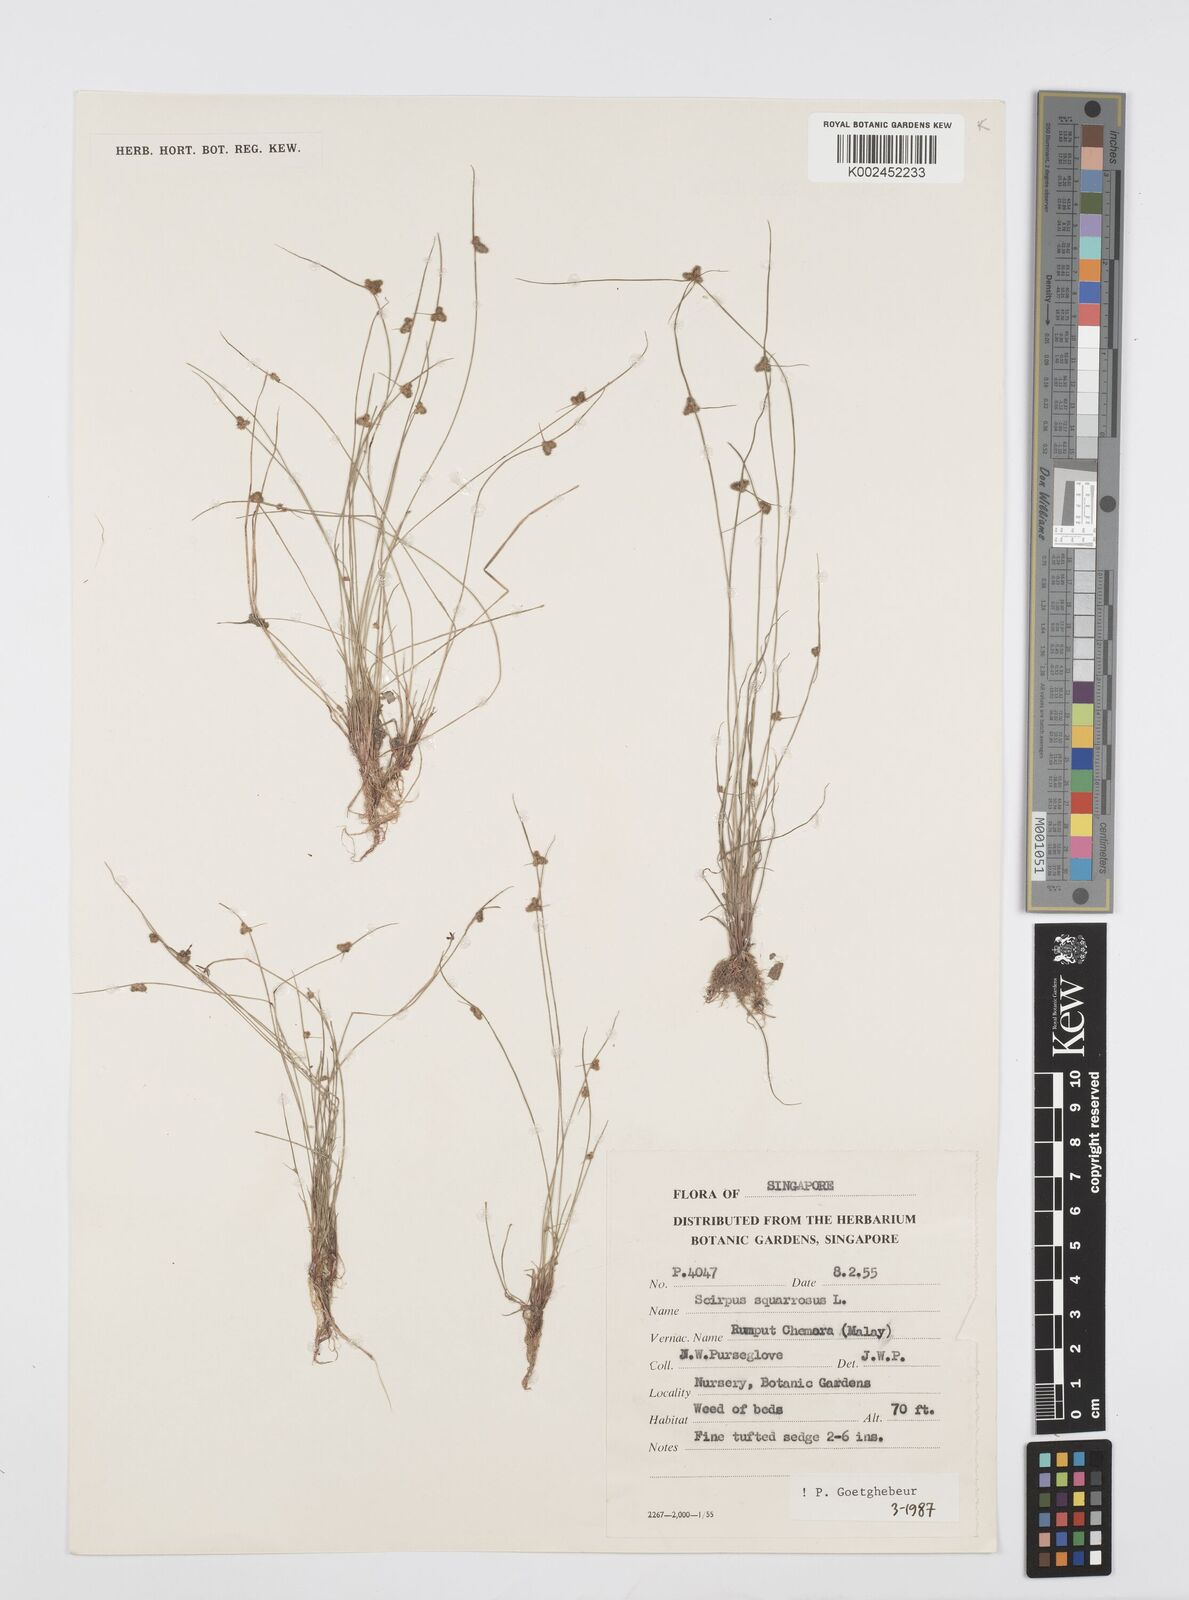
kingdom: Plantae
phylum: Tracheophyta
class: Liliopsida
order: Poales
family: Cyperaceae
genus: Cyperus
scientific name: Cyperus squarrosus
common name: Awned cyperus
